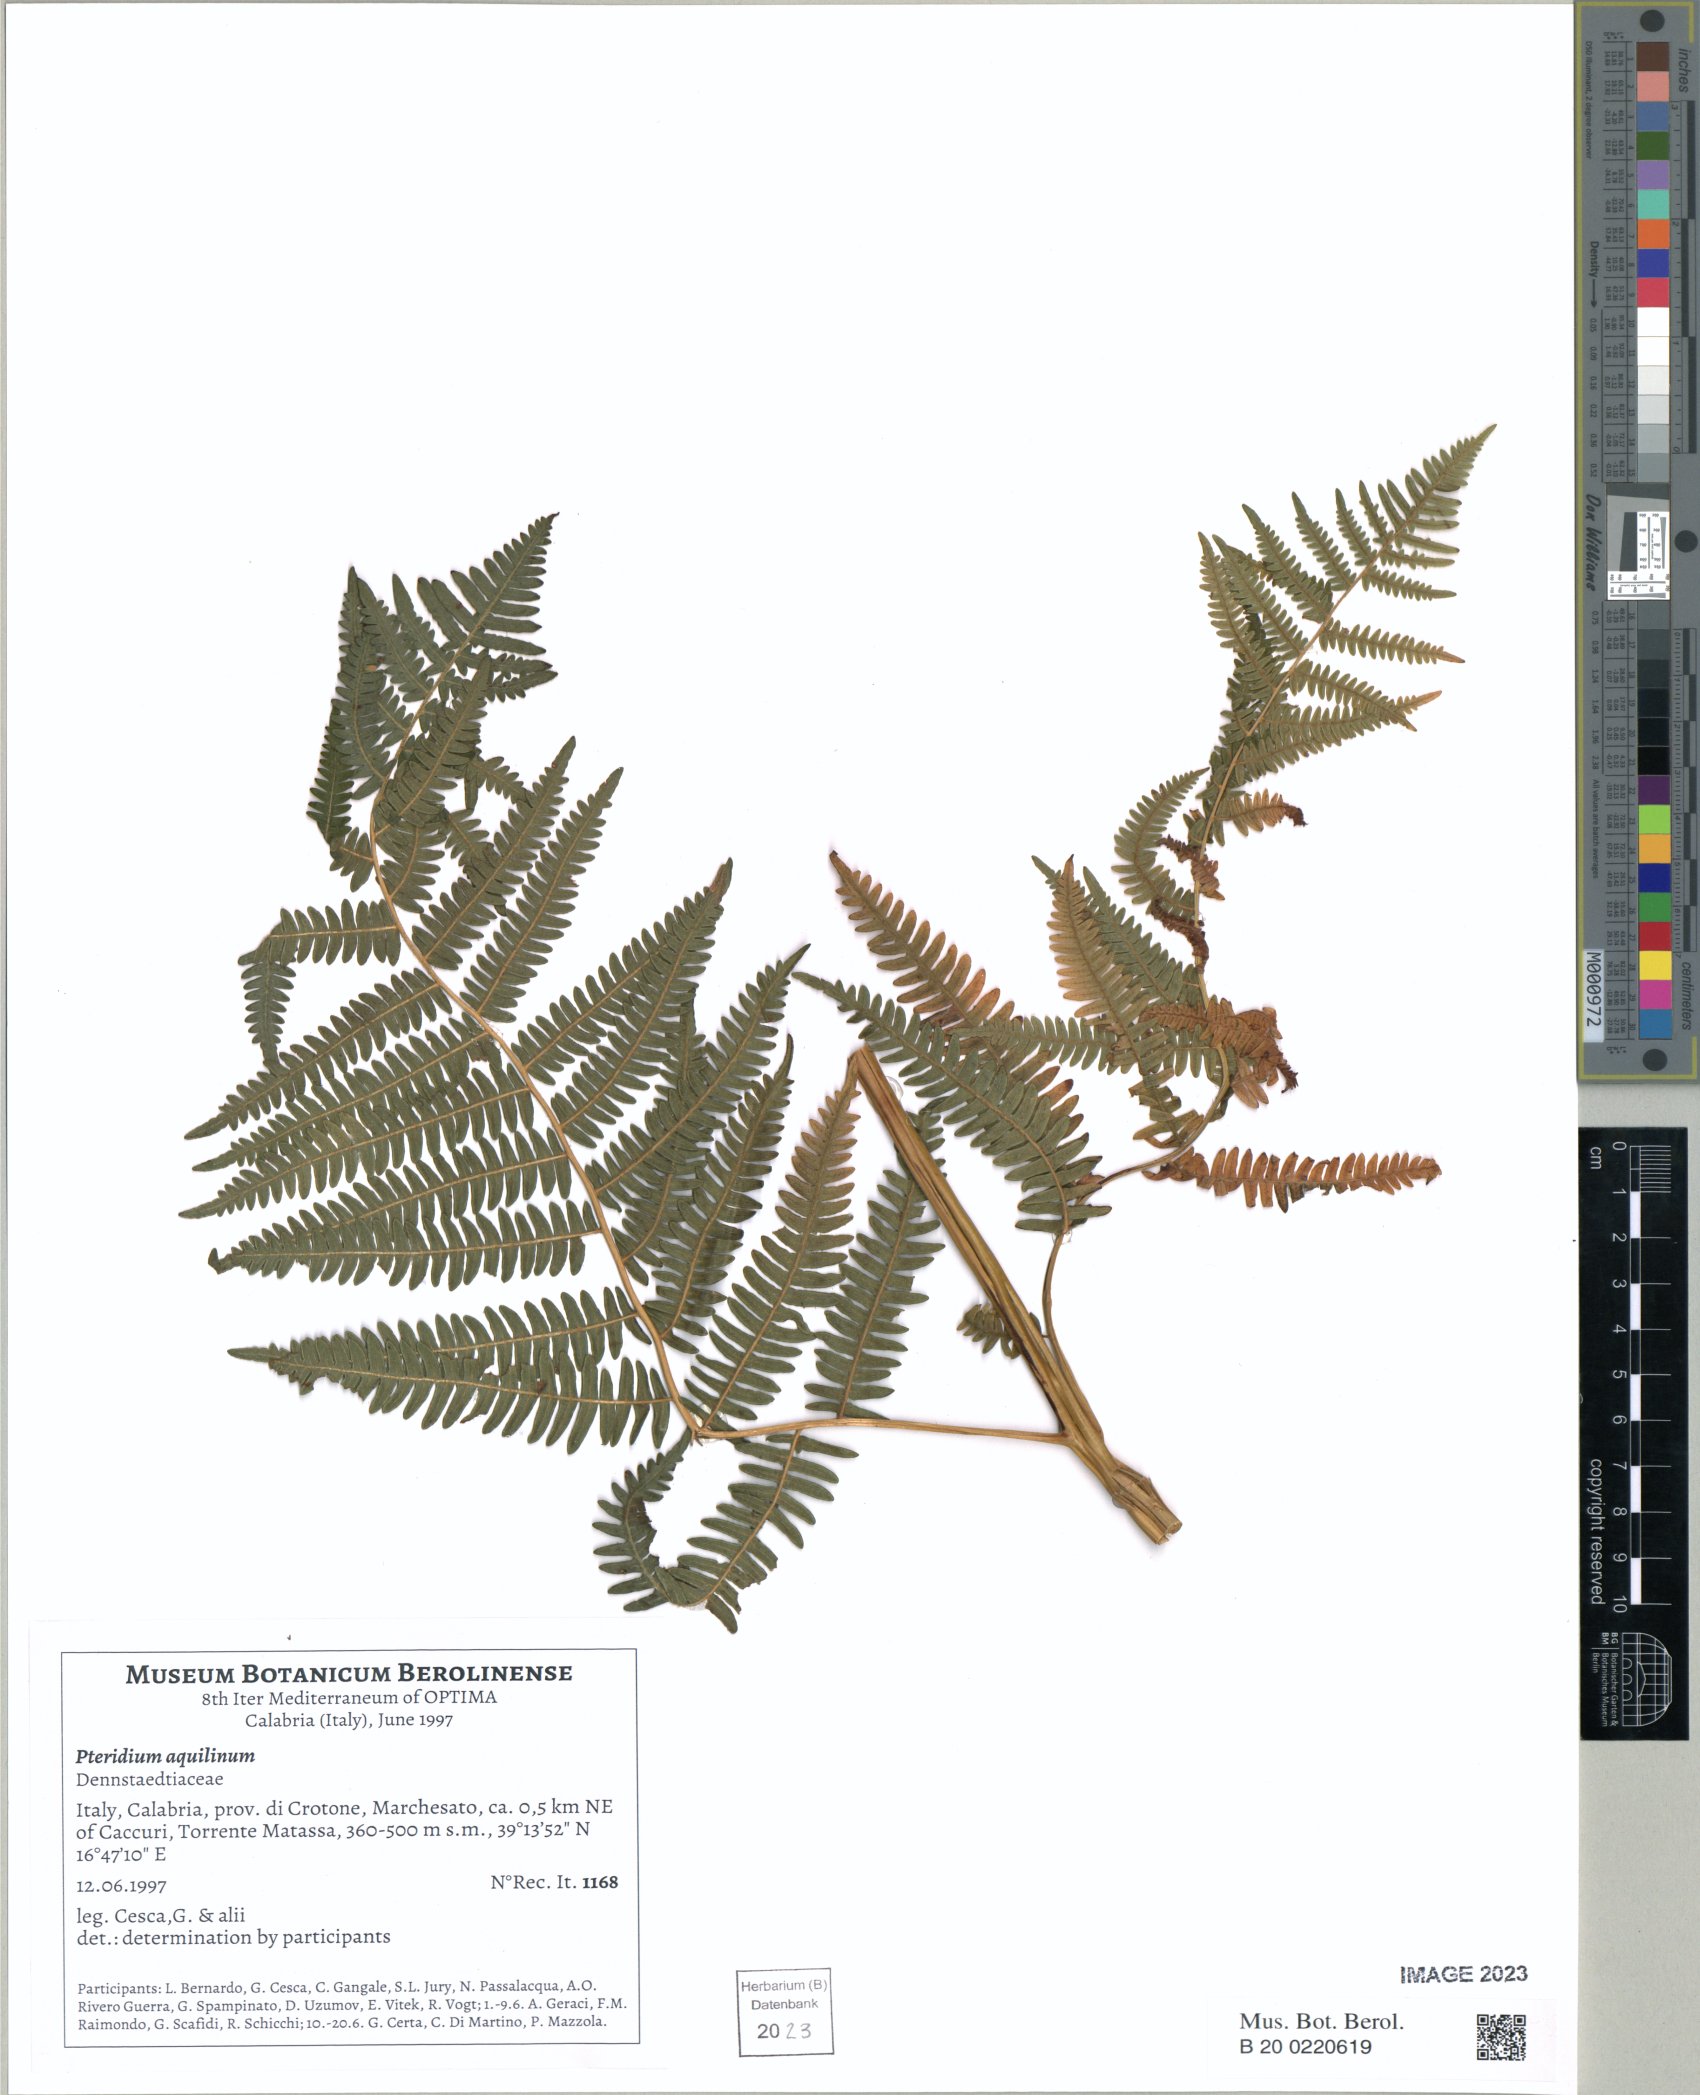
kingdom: Plantae
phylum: Tracheophyta
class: Polypodiopsida
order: Polypodiales
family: Dennstaedtiaceae
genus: Pteridium
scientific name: Pteridium aquilinum
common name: Bracken
